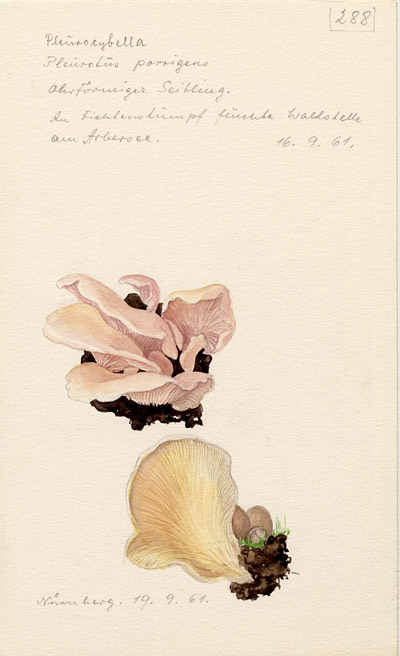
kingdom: Fungi
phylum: Basidiomycota
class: Agaricomycetes
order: Agaricales
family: Marasmiaceae
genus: Pleurocybella
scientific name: Pleurocybella porrigens
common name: Angel's wings
